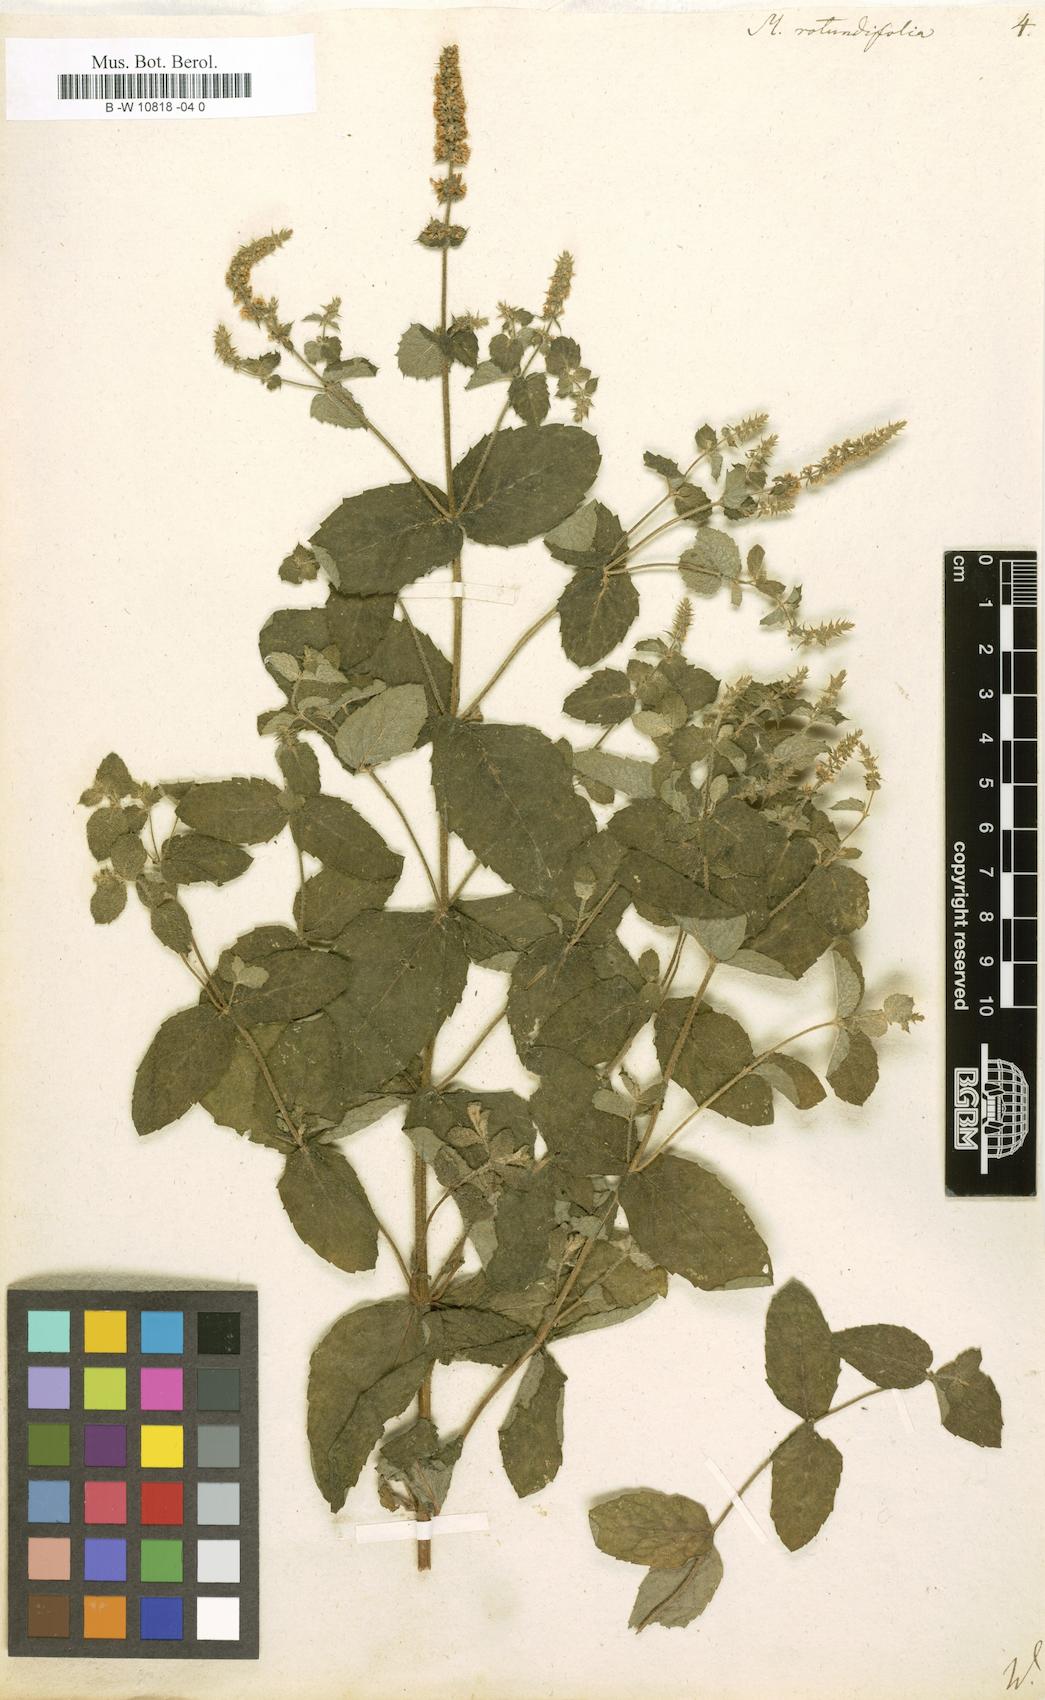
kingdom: Plantae
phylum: Tracheophyta
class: Magnoliopsida
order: Lamiales
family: Lamiaceae
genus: Mentha
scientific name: Mentha rotundifolia
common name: Bigleaf mint
